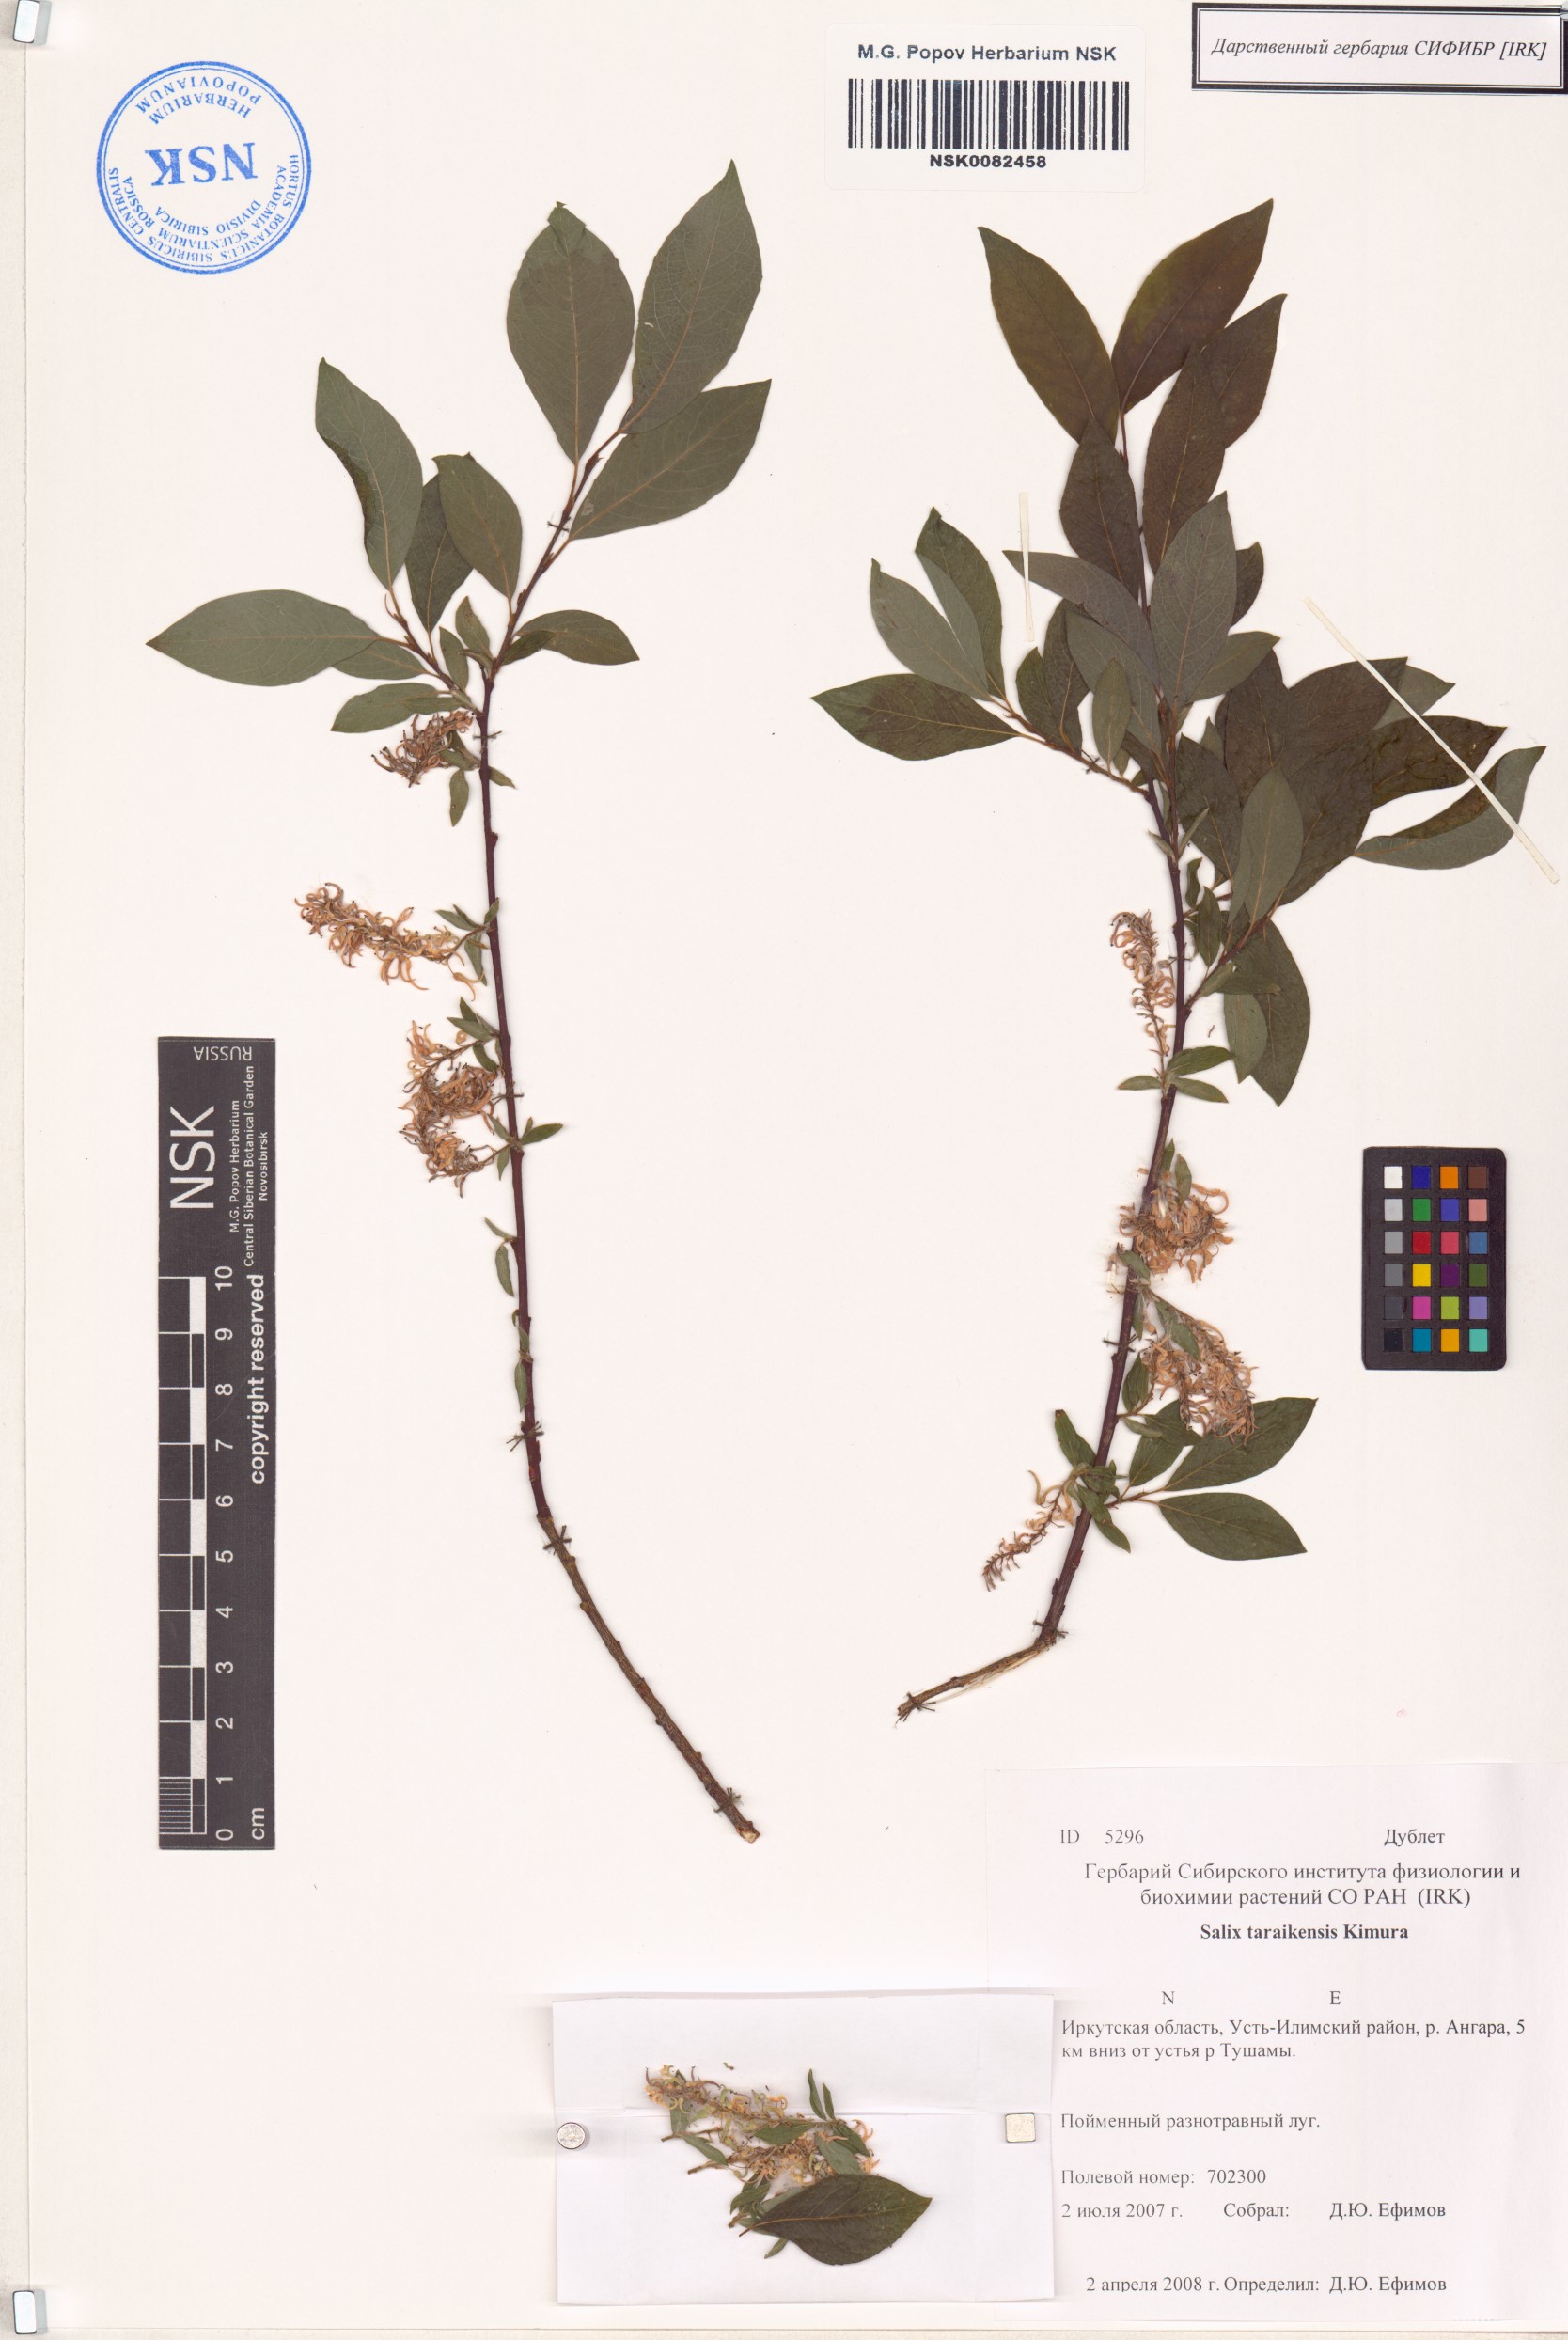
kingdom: Plantae
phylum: Tracheophyta
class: Magnoliopsida
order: Malpighiales
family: Salicaceae
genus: Salix
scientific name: Salix taraikensis
